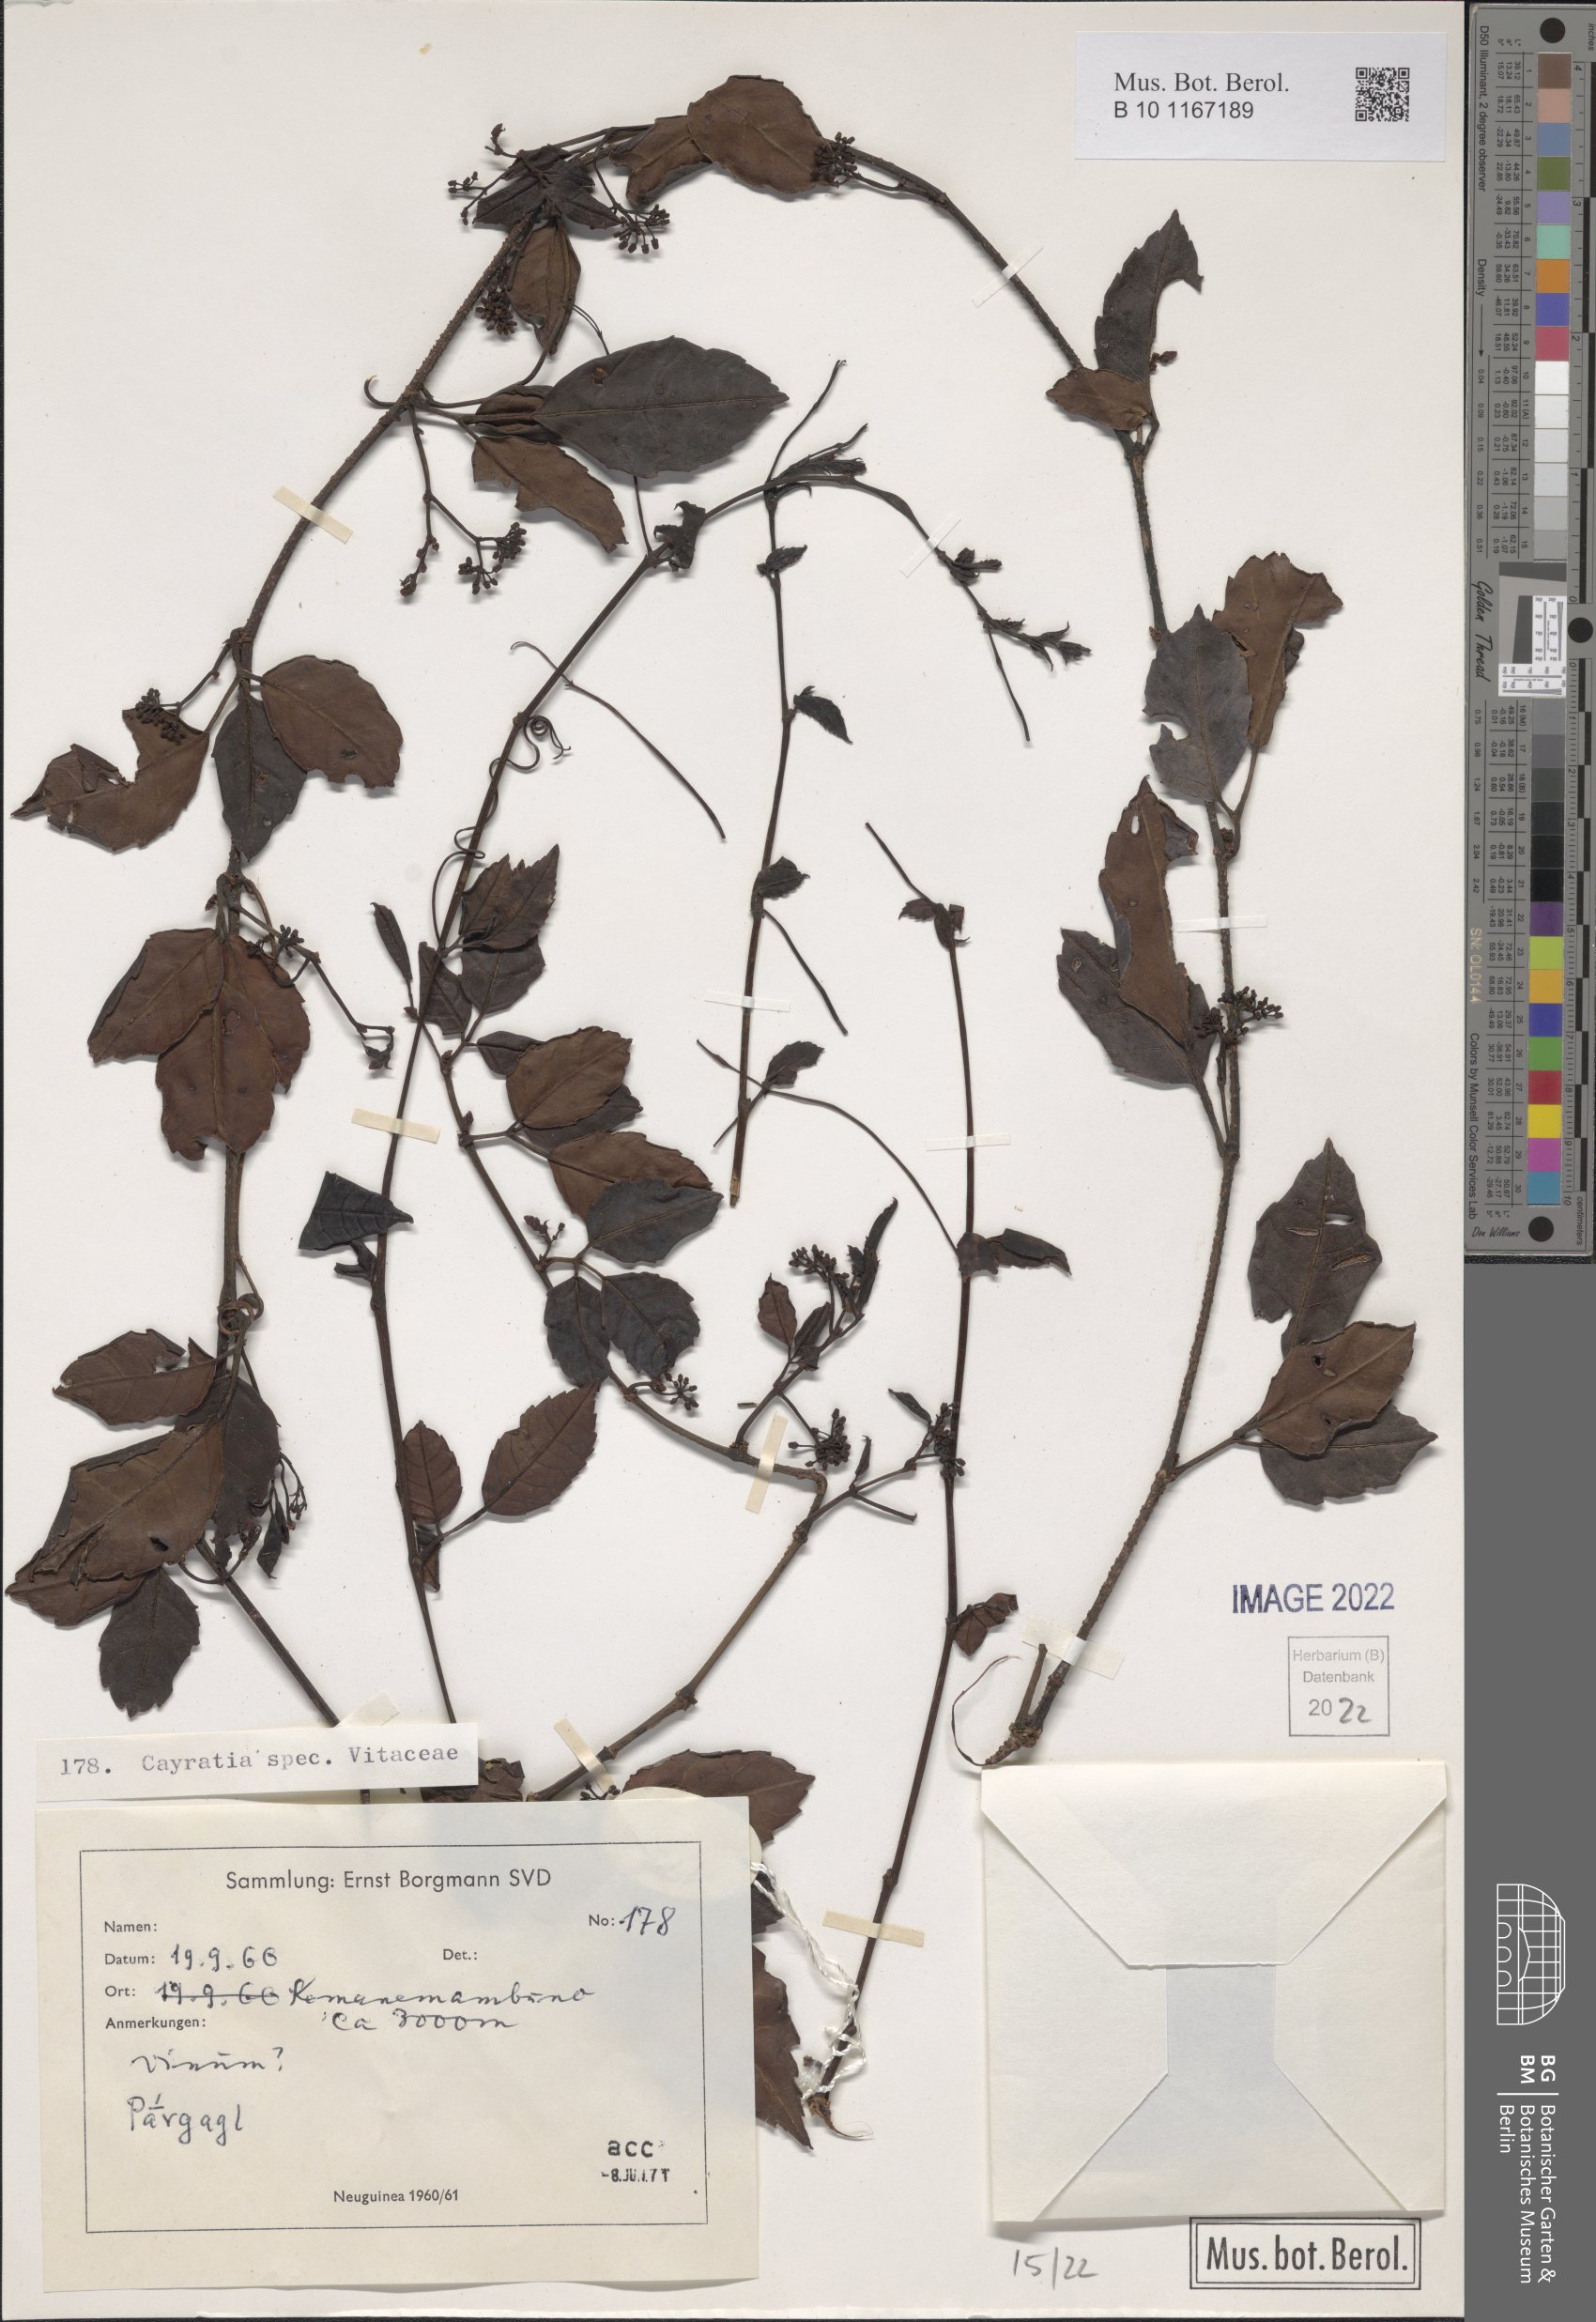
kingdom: Plantae
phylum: Tracheophyta
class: Magnoliopsida
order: Vitales
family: Vitaceae
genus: Cayratia
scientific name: Cayratia
